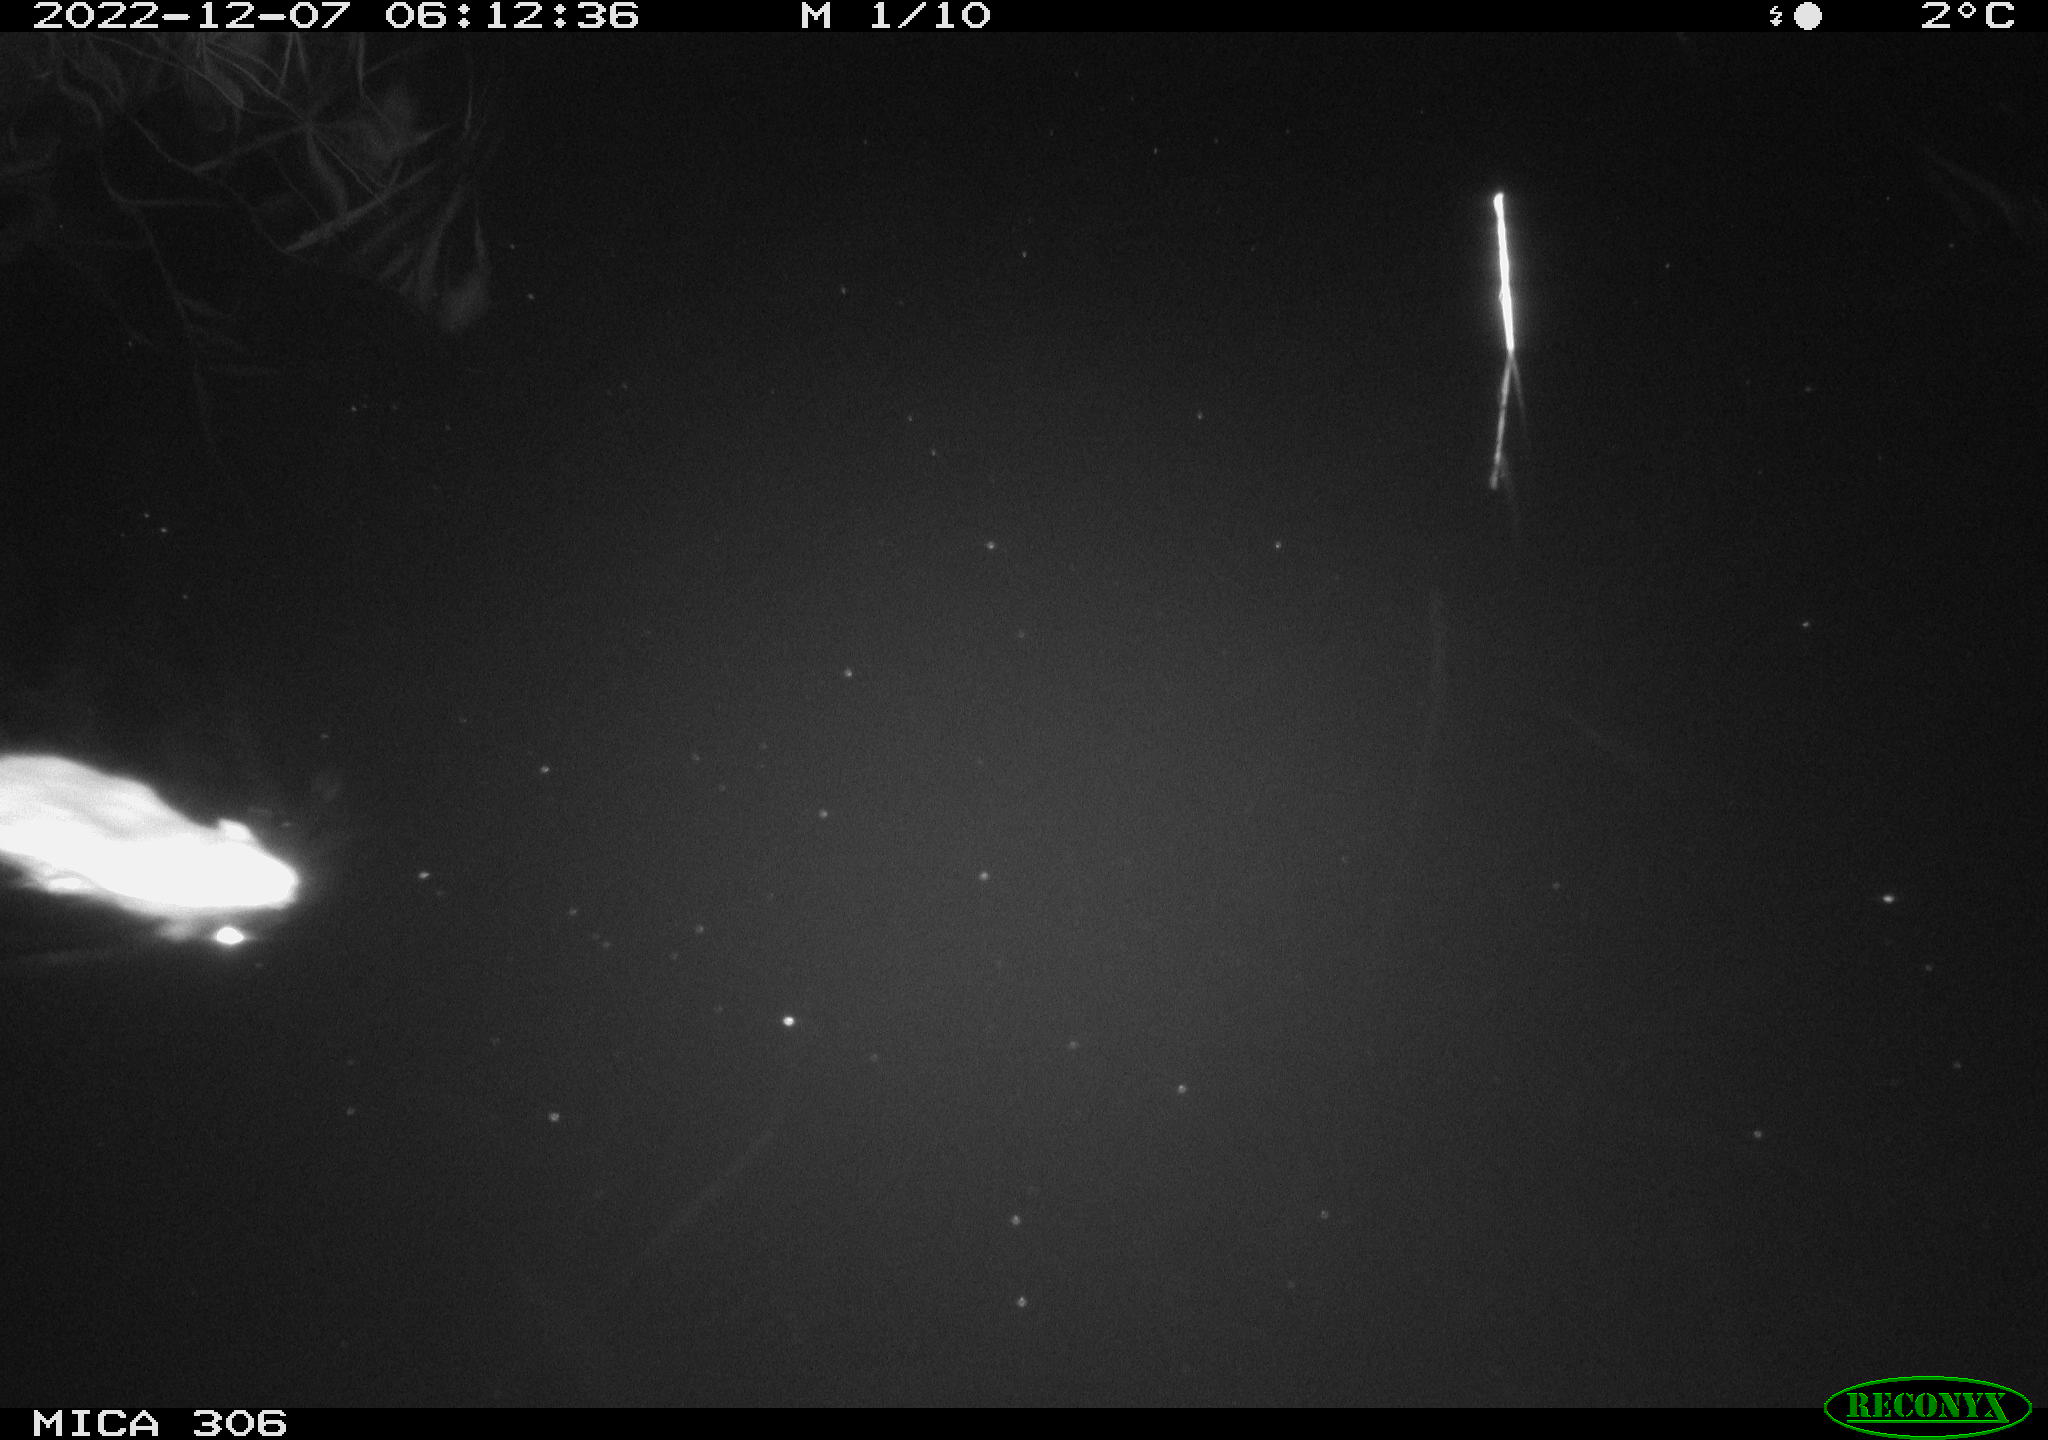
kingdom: Animalia
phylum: Chordata
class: Mammalia
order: Rodentia
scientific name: Rodentia
